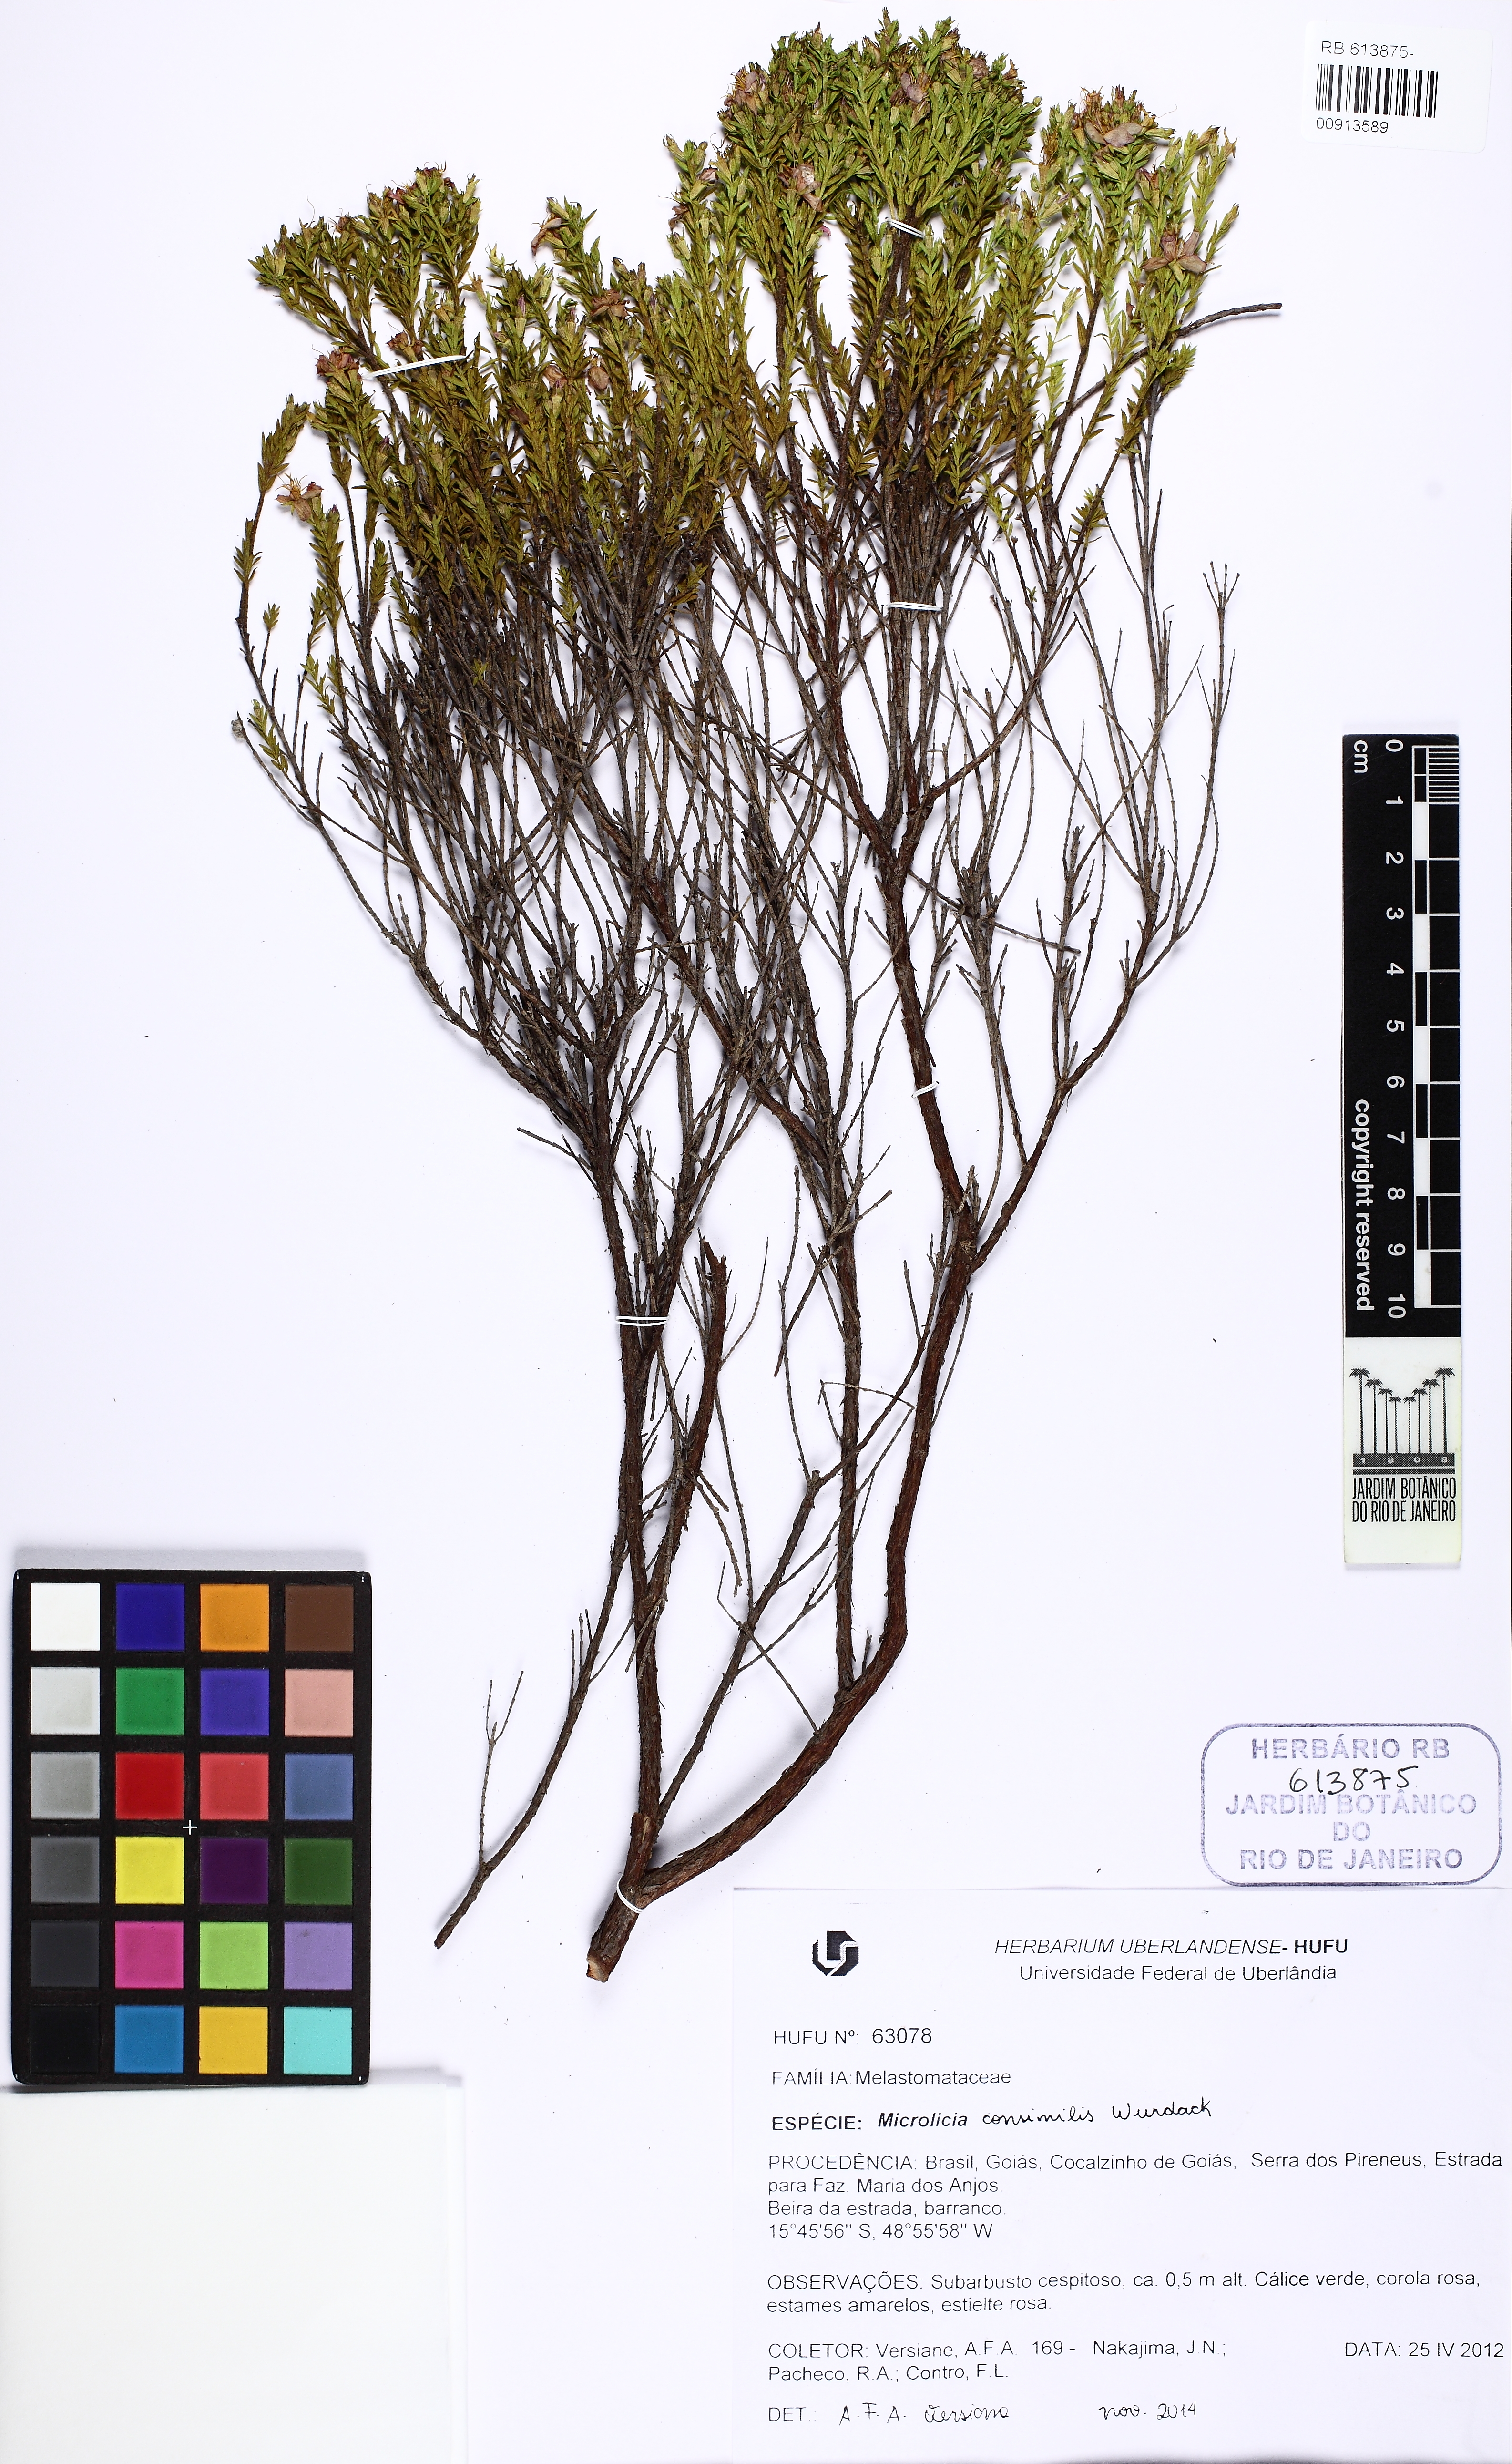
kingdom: Plantae
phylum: Tracheophyta
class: Magnoliopsida
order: Myrtales
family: Melastomataceae
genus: Microlicia
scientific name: Microlicia consimilis
